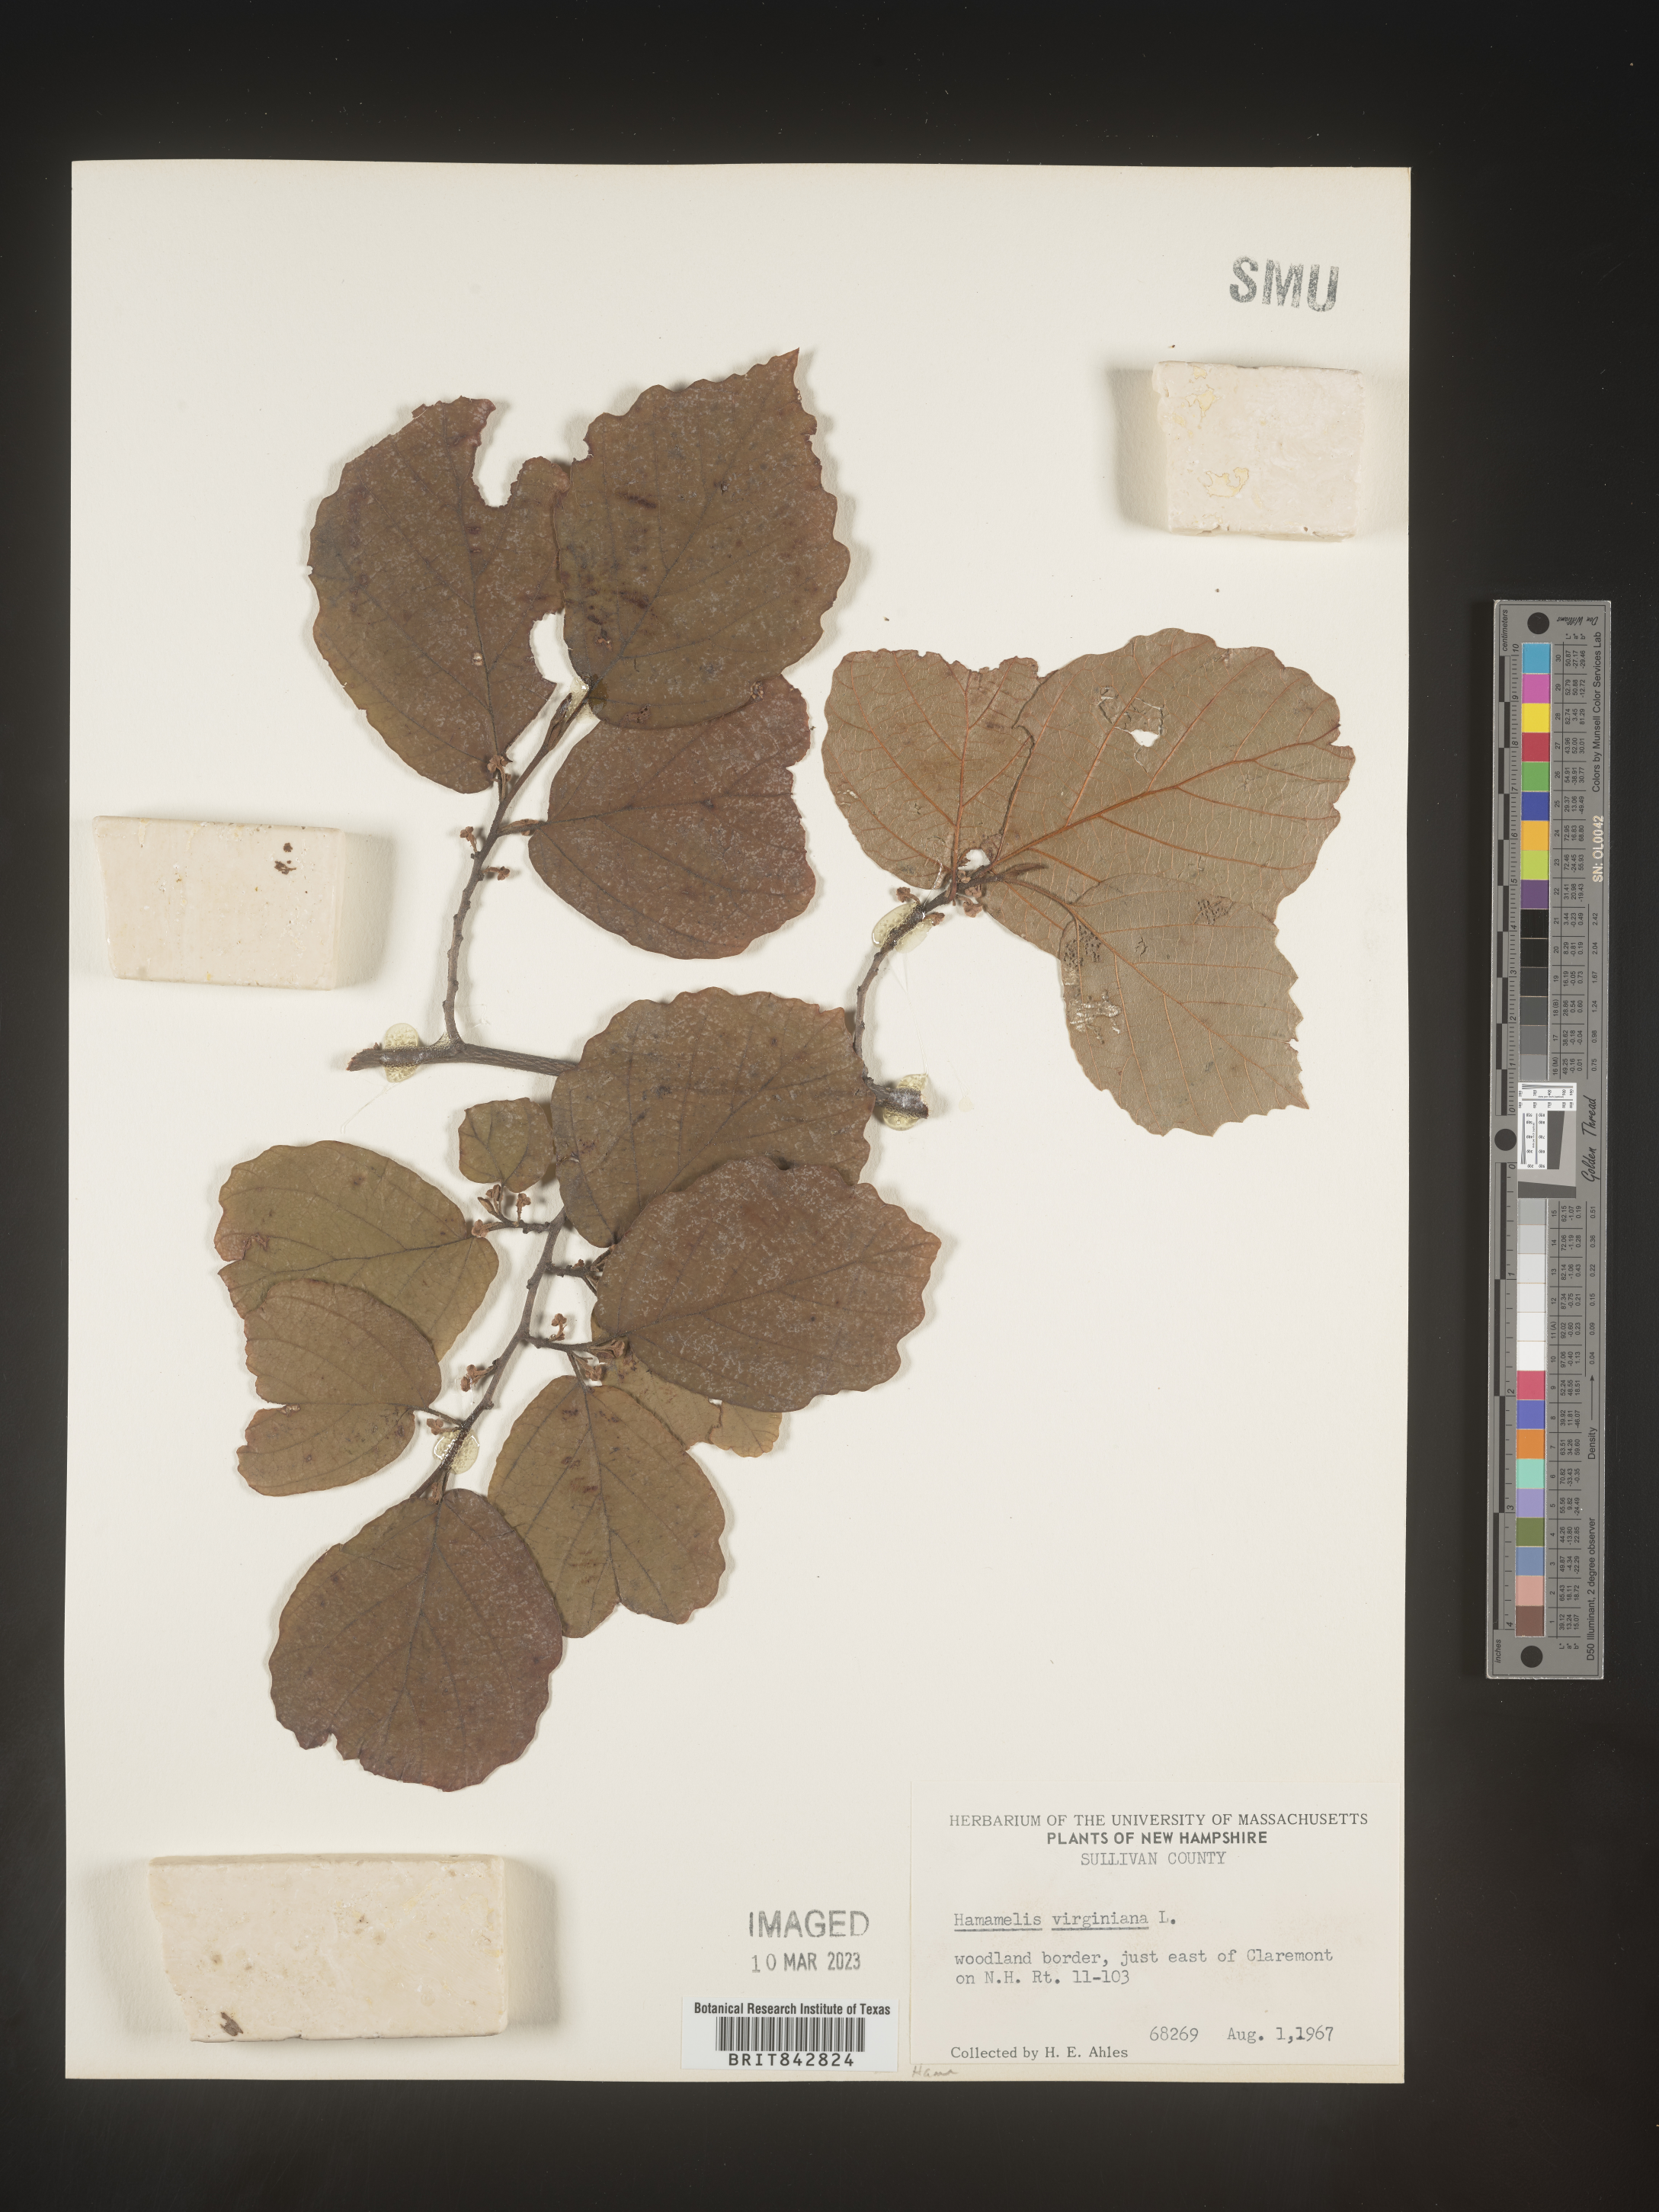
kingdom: Plantae
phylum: Tracheophyta
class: Magnoliopsida
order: Saxifragales
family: Hamamelidaceae
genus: Hamamelis
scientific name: Hamamelis virginiana
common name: Witch-hazel
